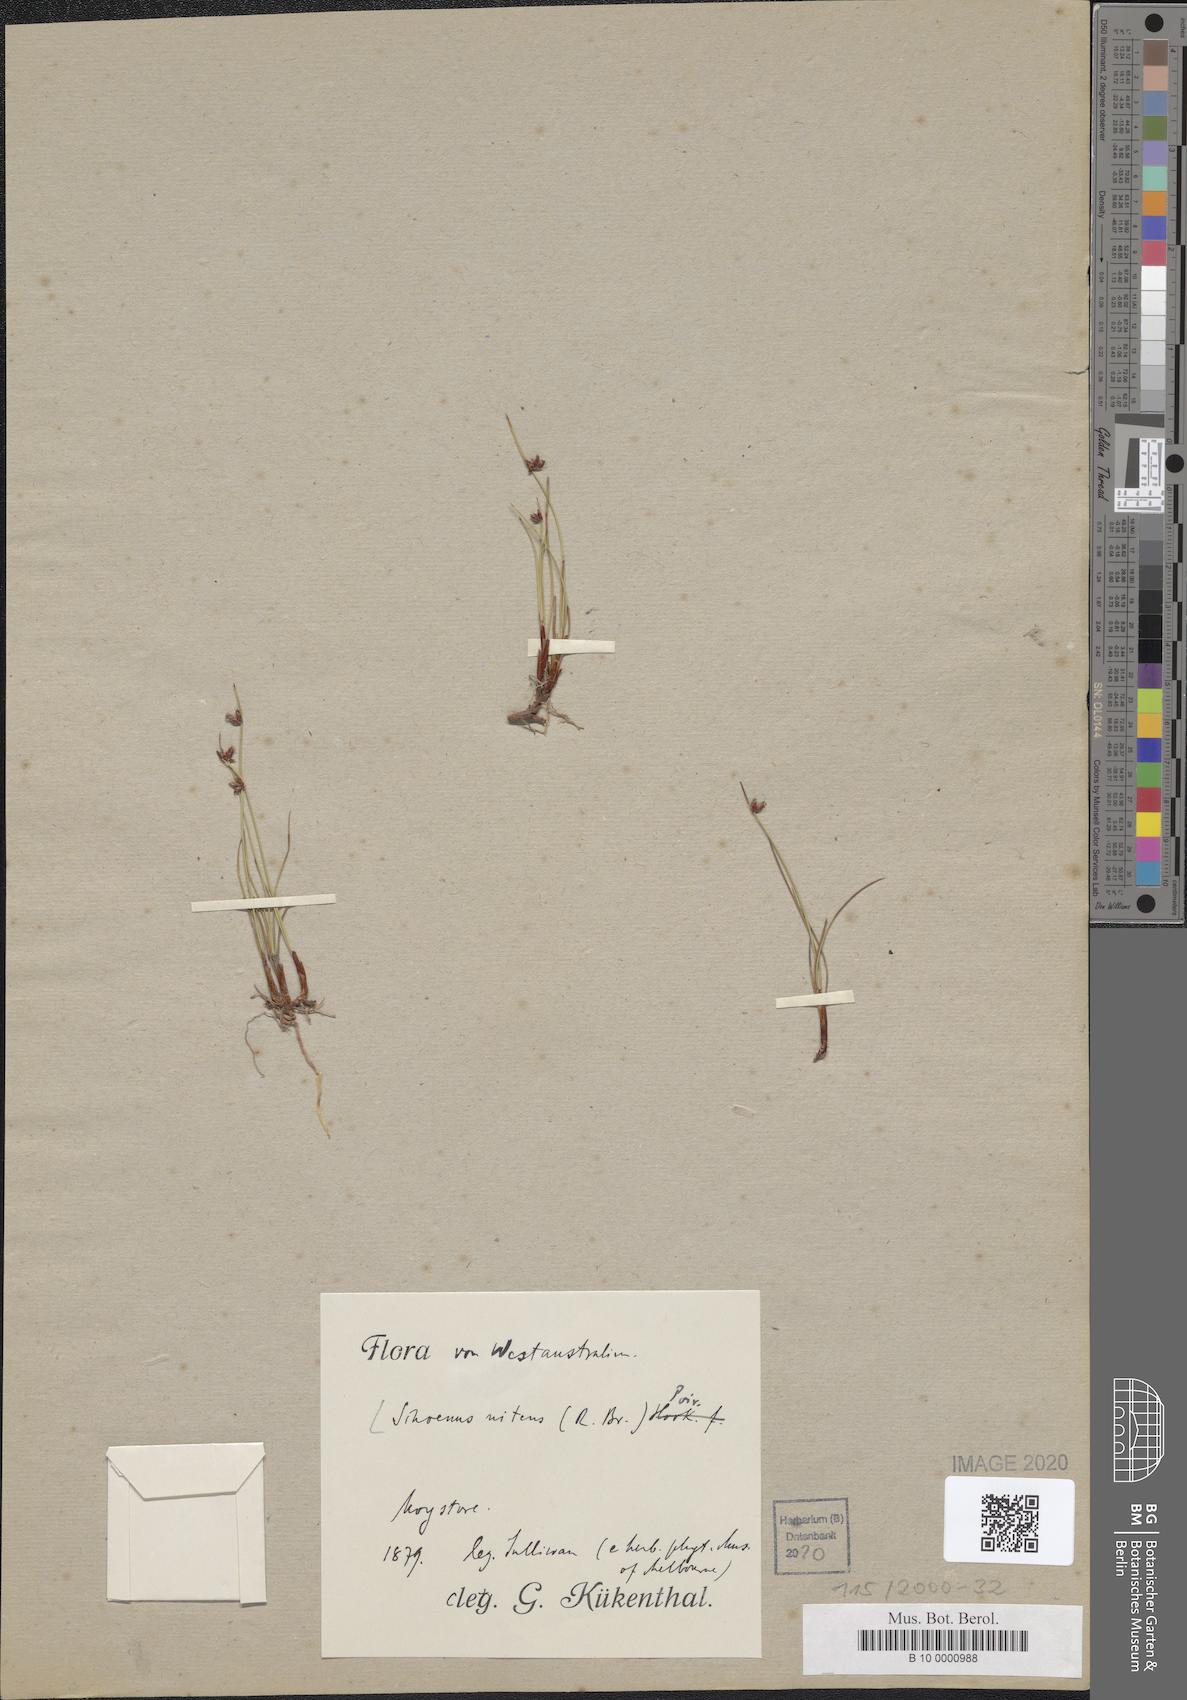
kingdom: Plantae
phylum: Tracheophyta
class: Liliopsida
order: Poales
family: Cyperaceae
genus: Schoenus
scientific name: Schoenus nitens
